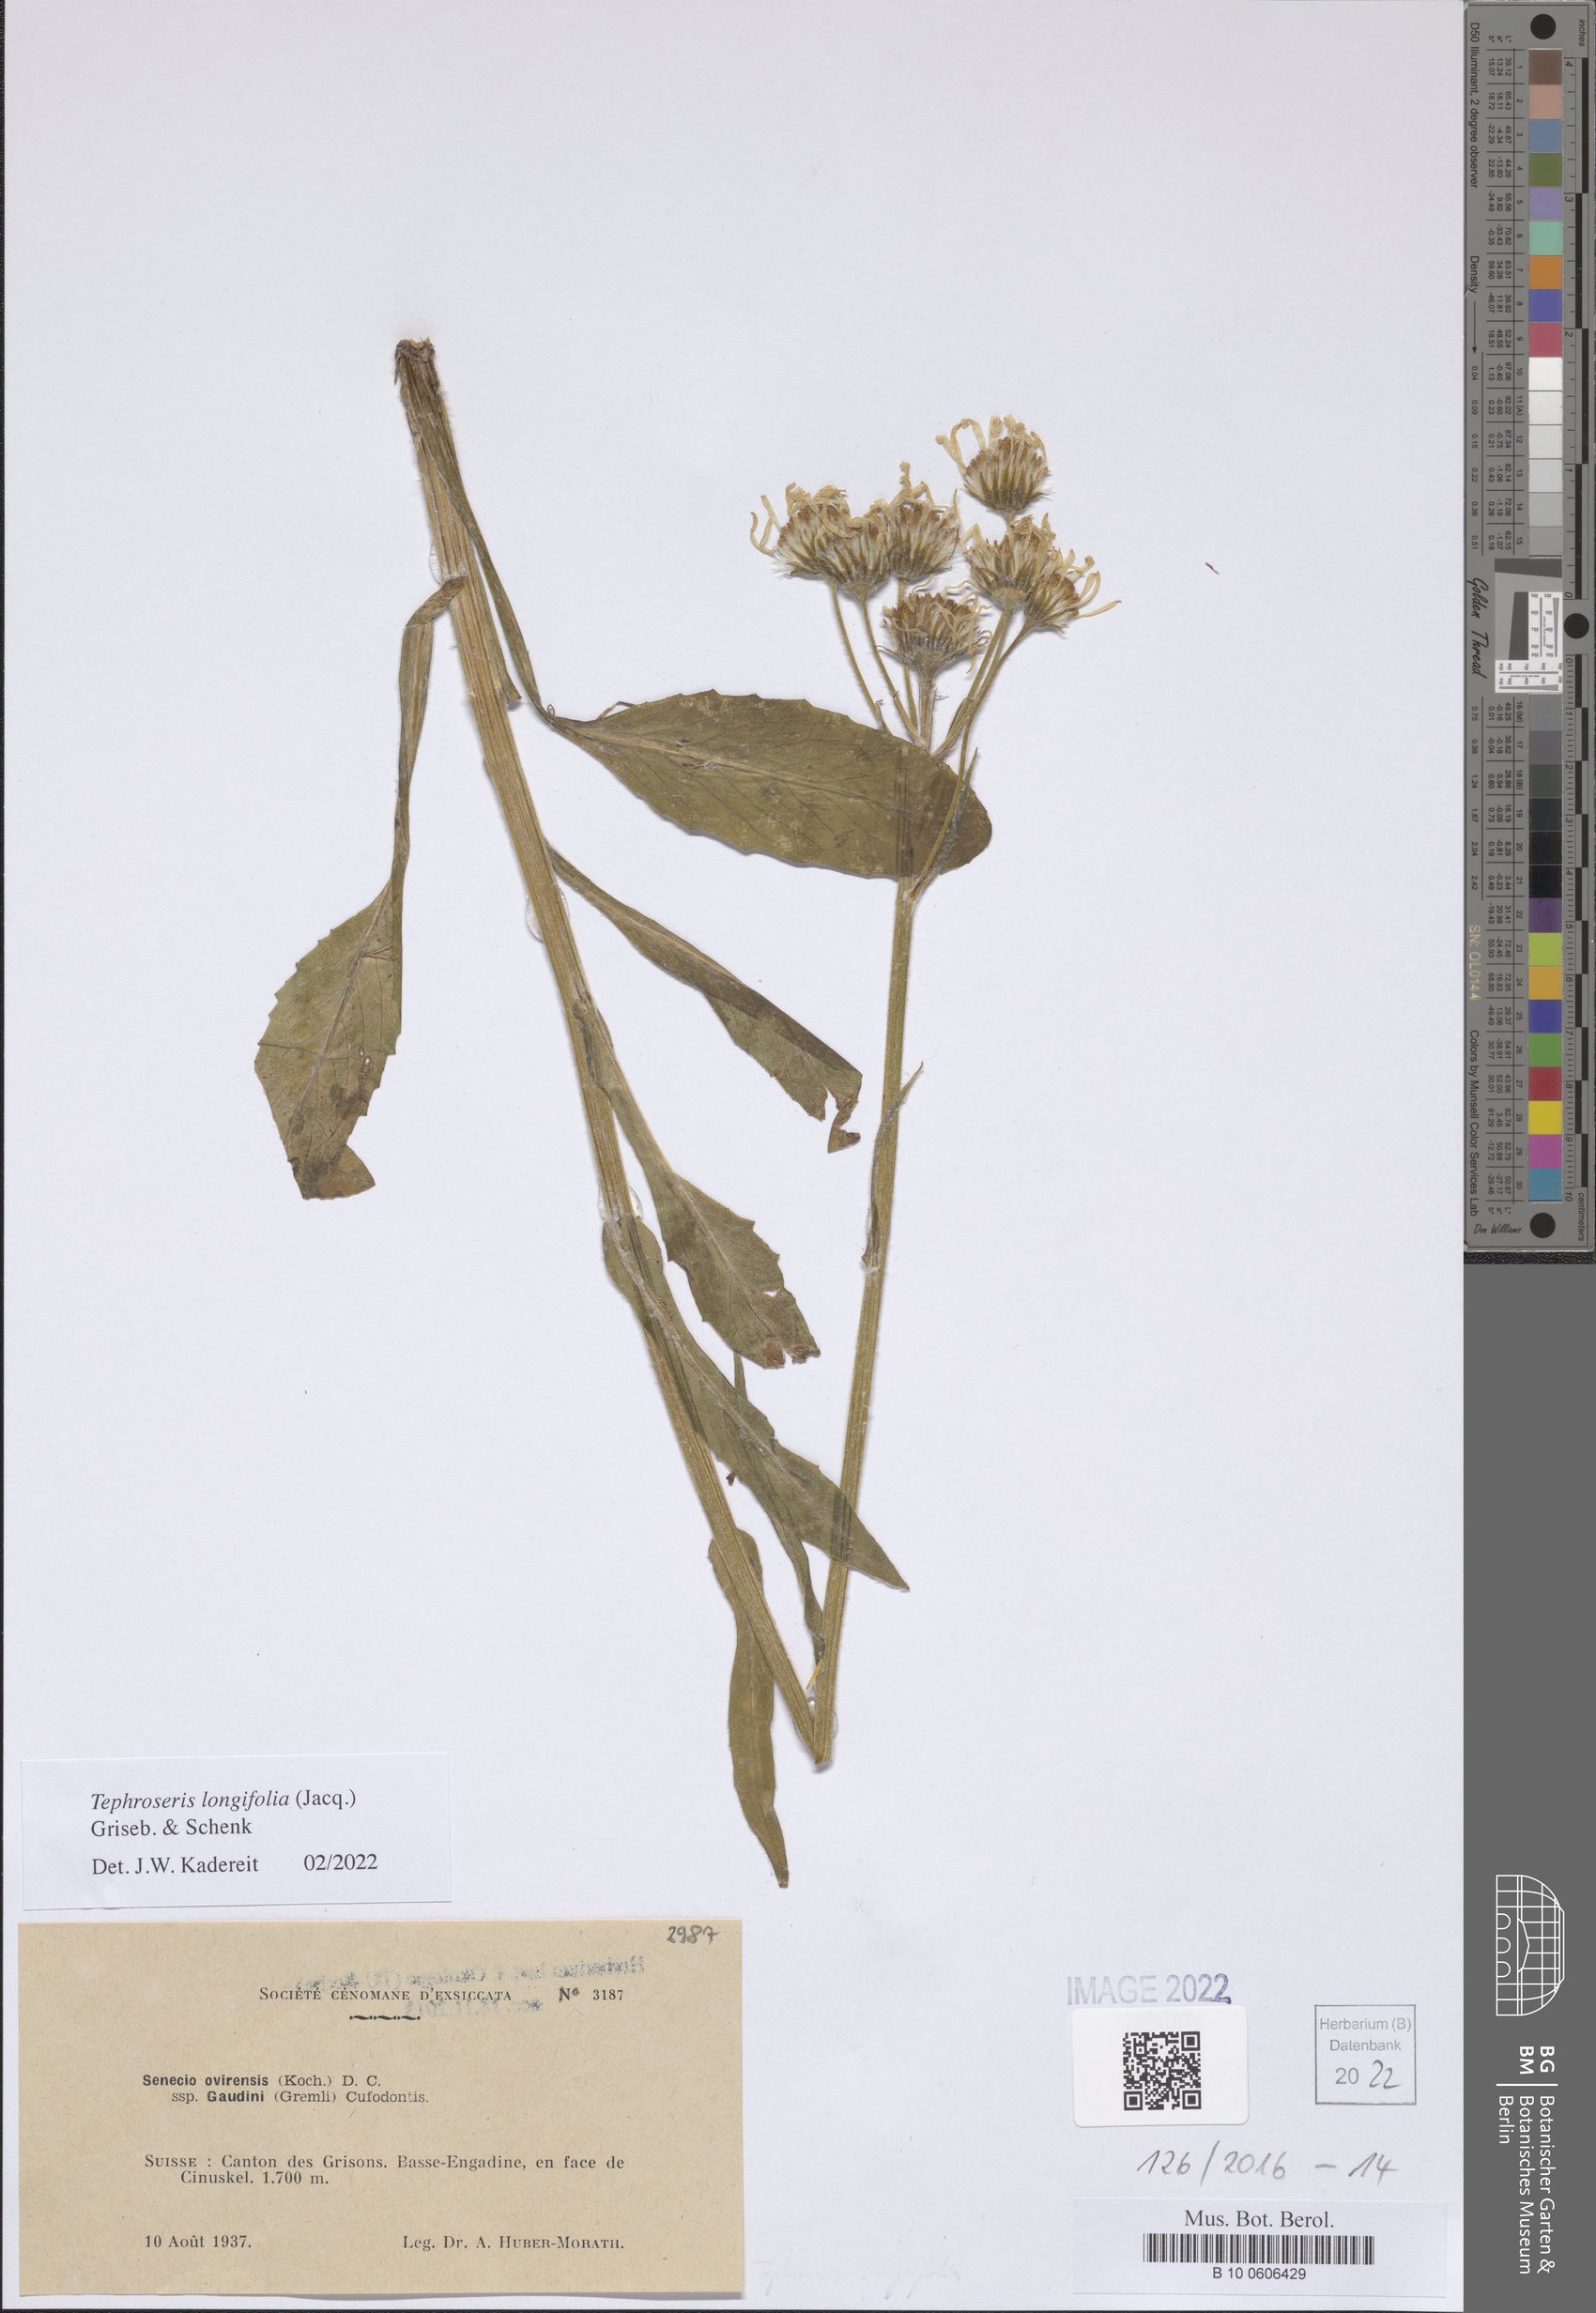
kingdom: Plantae
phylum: Tracheophyta
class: Magnoliopsida
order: Asterales
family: Asteraceae
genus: Tephroseris
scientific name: Tephroseris longifolia
